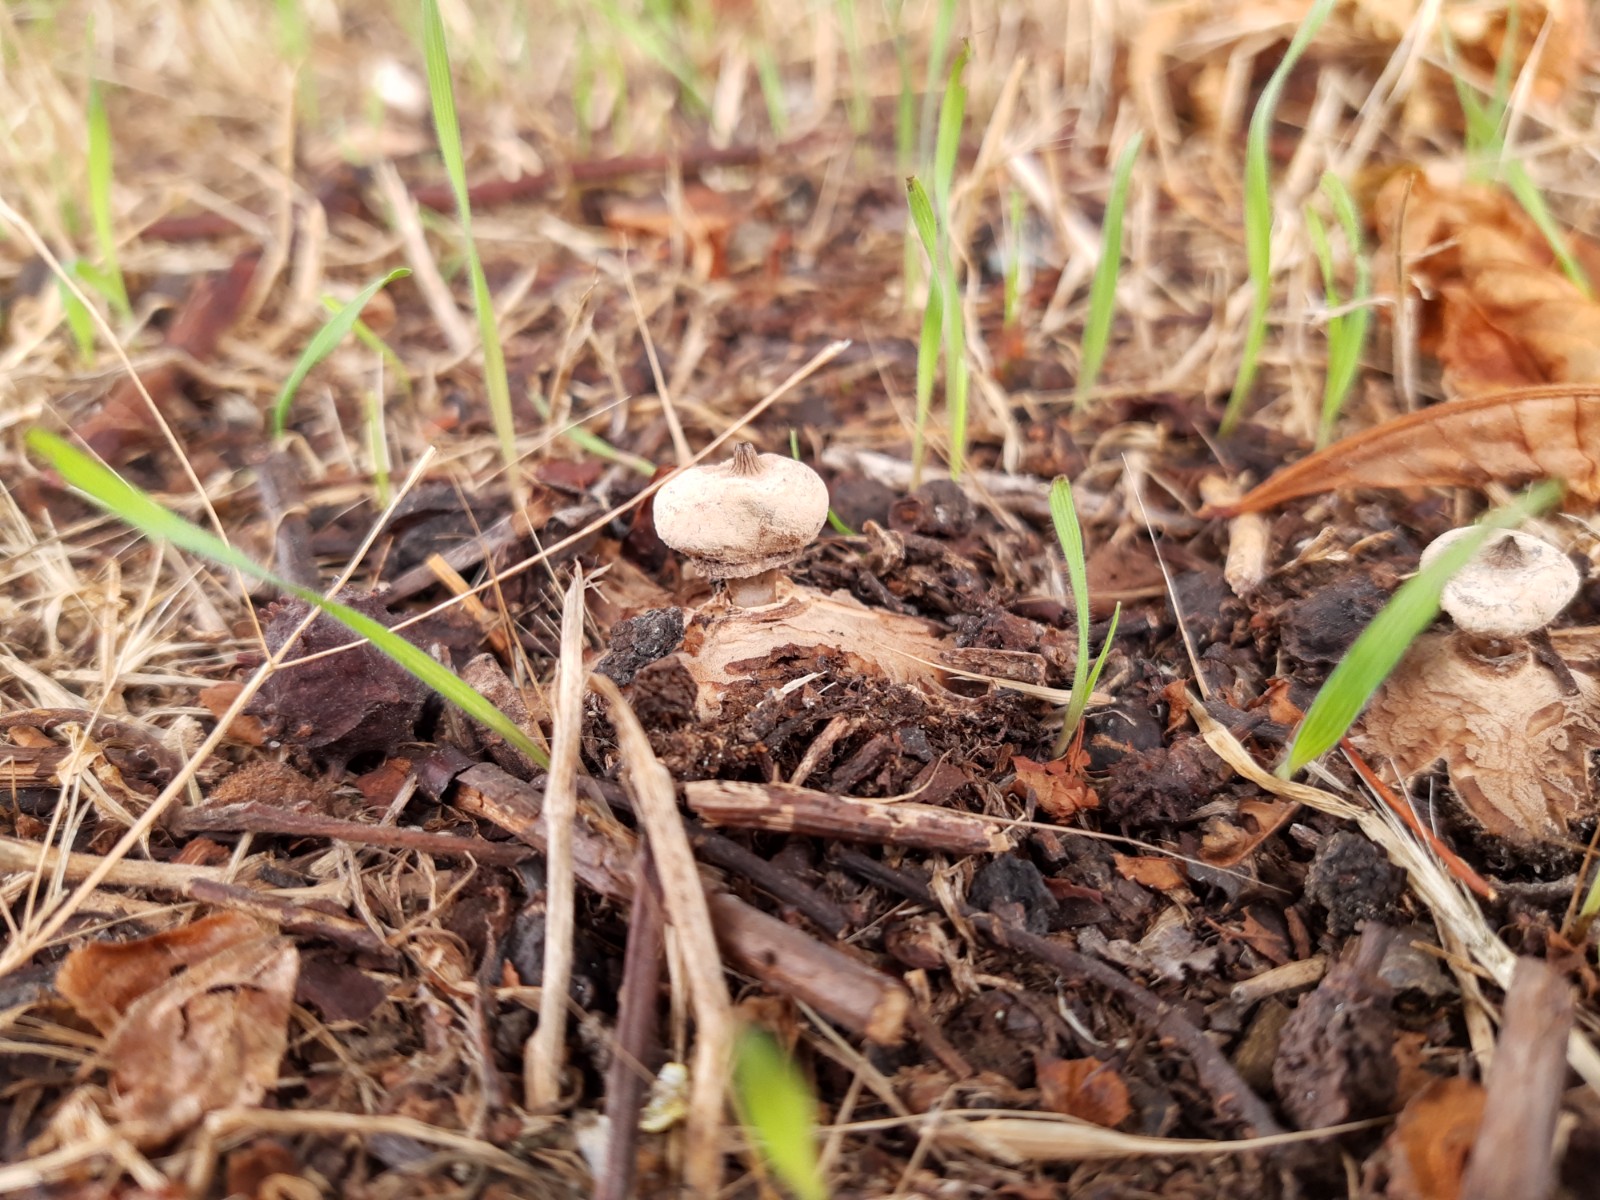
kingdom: Fungi
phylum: Basidiomycota
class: Agaricomycetes
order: Geastrales
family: Geastraceae
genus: Geastrum
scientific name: Geastrum striatum
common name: krave-stjernebold
